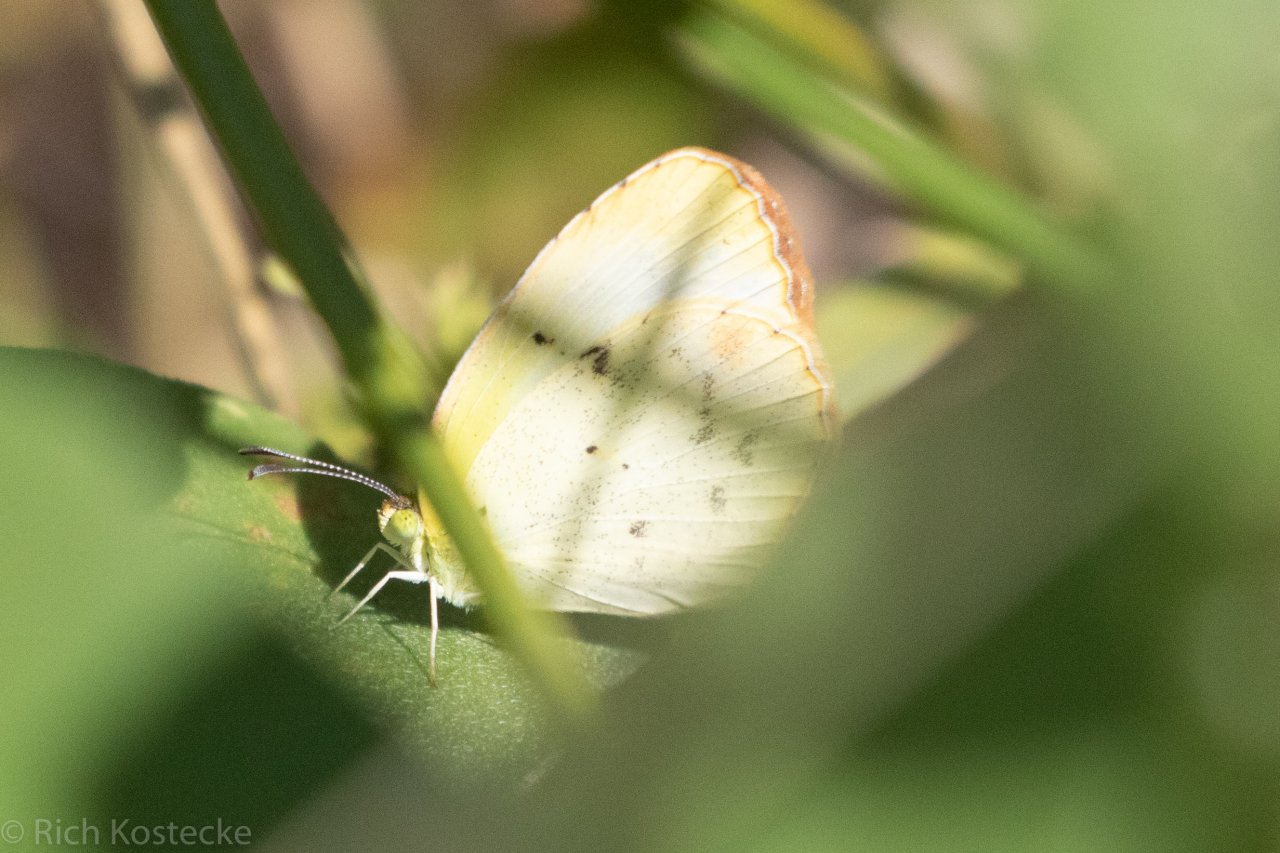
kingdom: Animalia
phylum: Arthropoda
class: Insecta
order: Lepidoptera
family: Pieridae
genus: Pyrisitia
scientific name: Pyrisitia lisa
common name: Little Yellow
